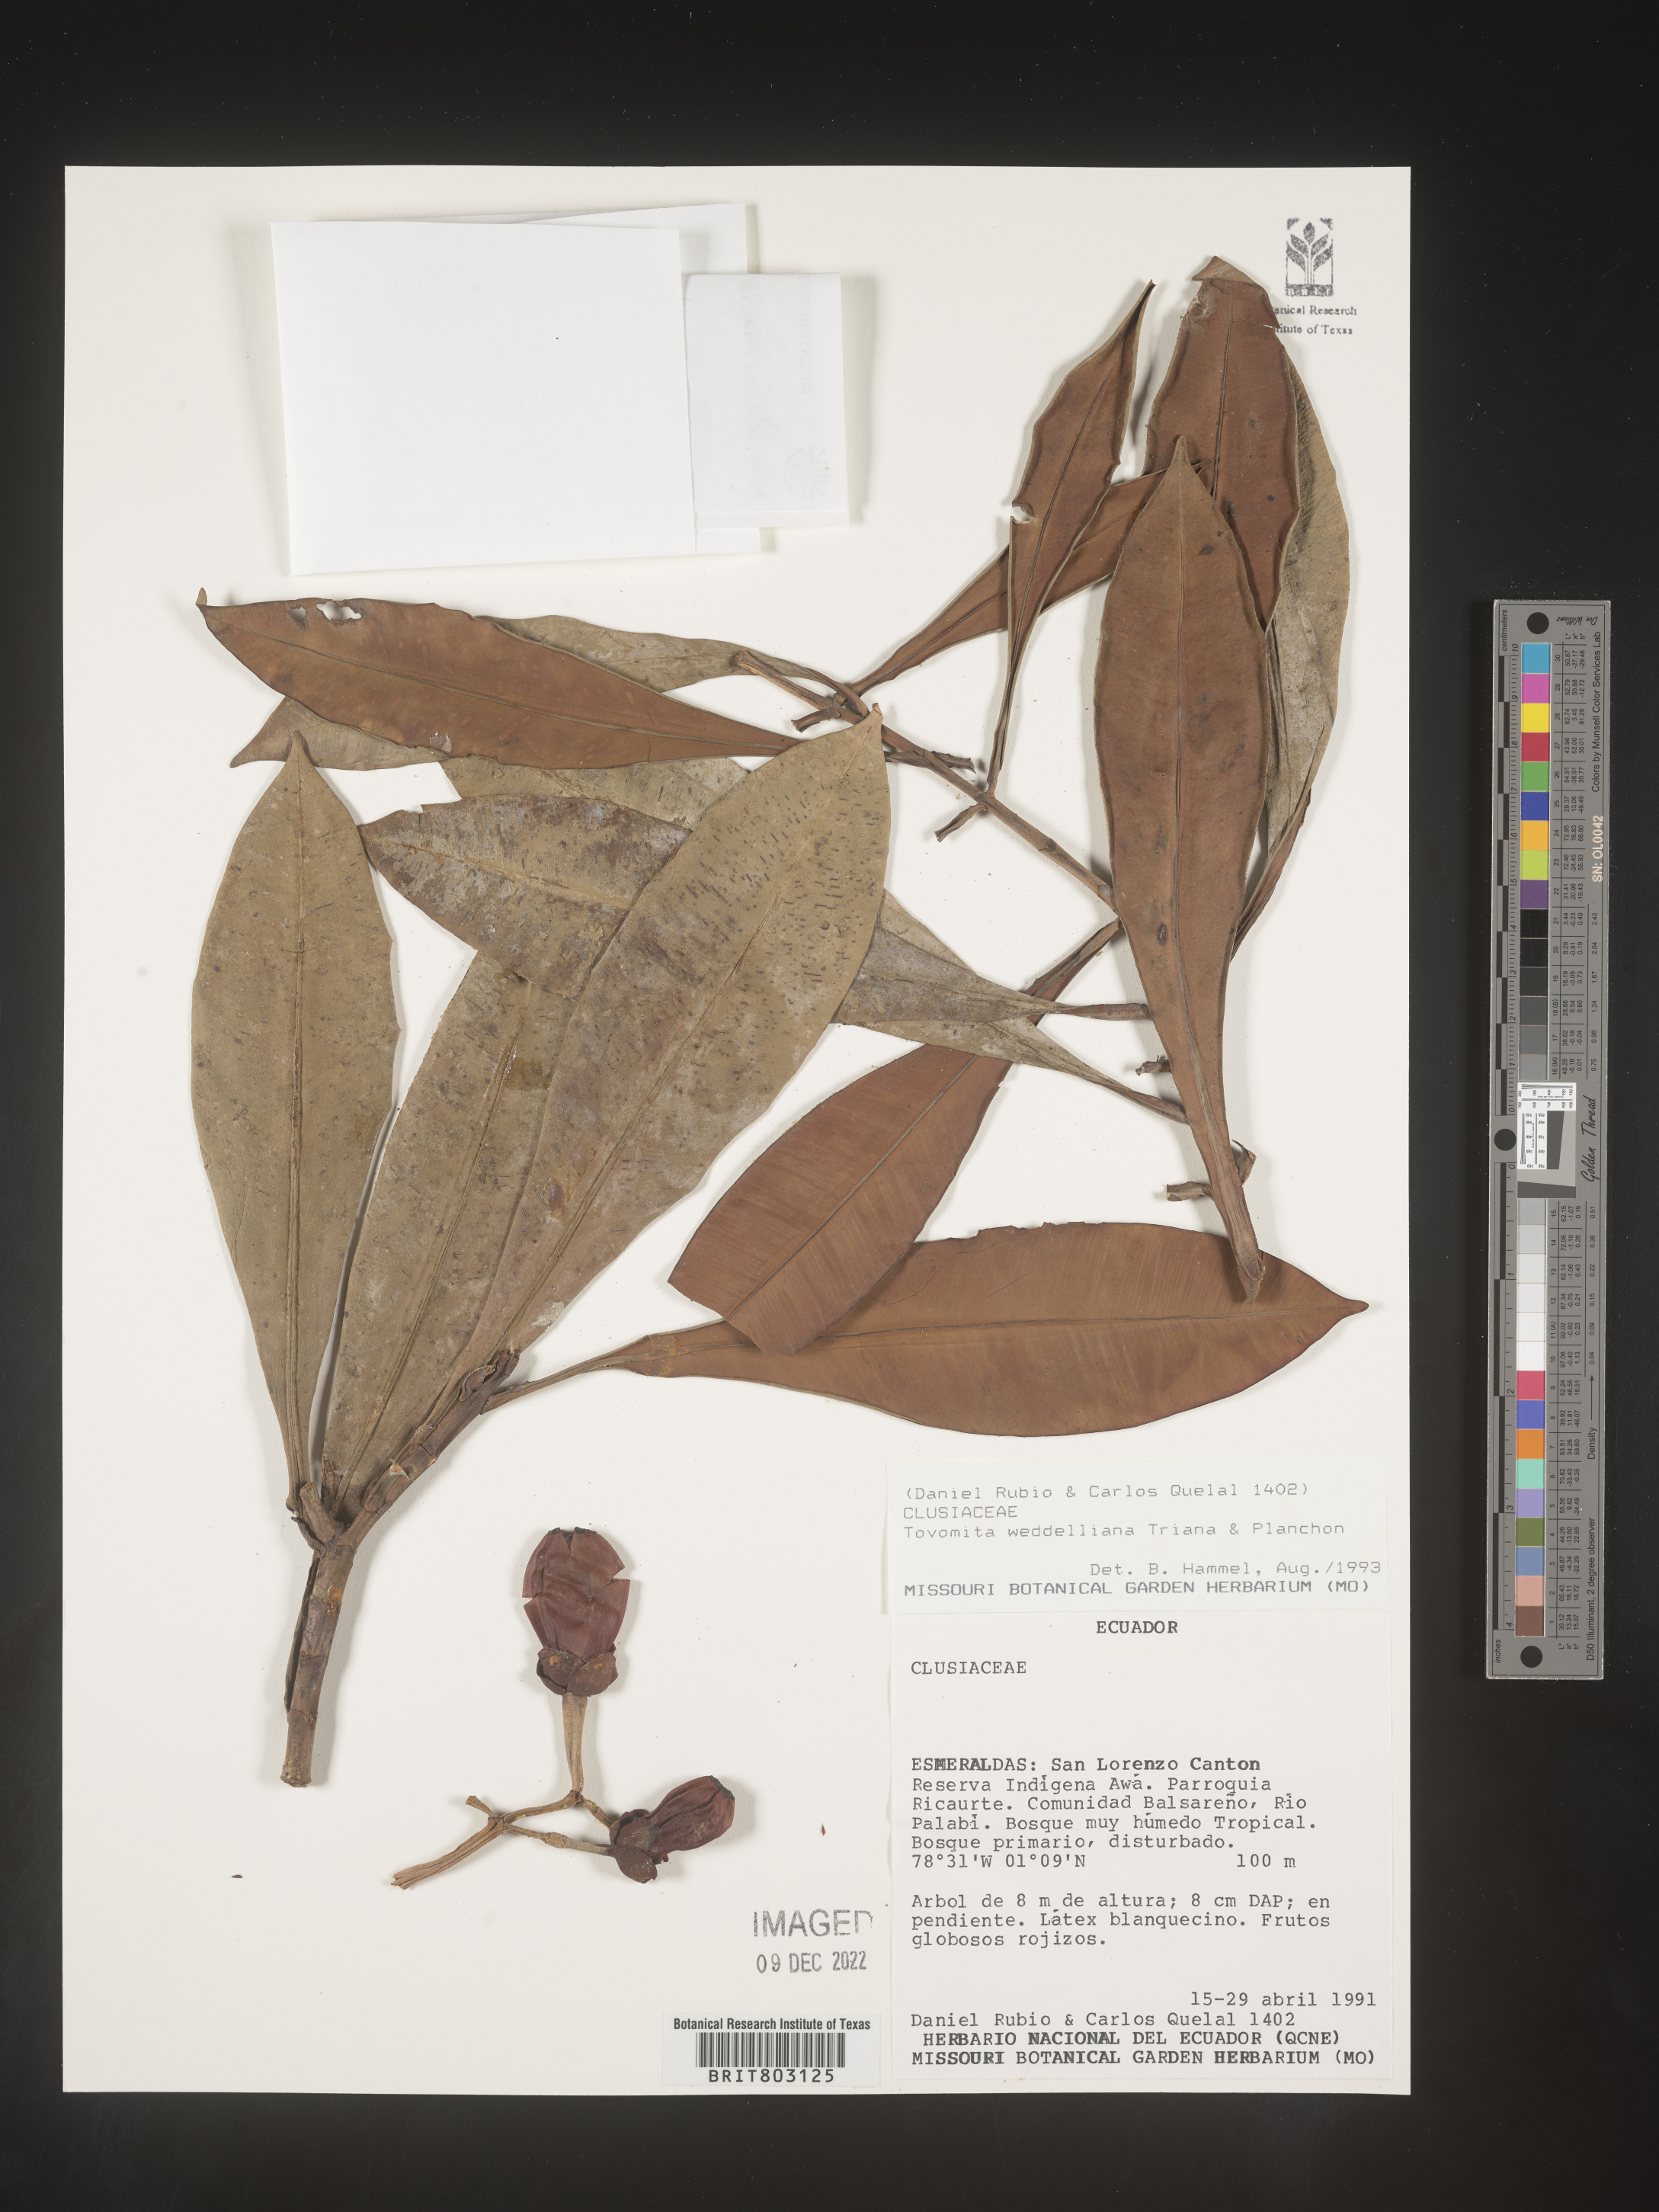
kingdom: Plantae
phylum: Tracheophyta
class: Magnoliopsida
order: Malpighiales
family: Clusiaceae
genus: Arawakia
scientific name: Arawakia weddelliana
